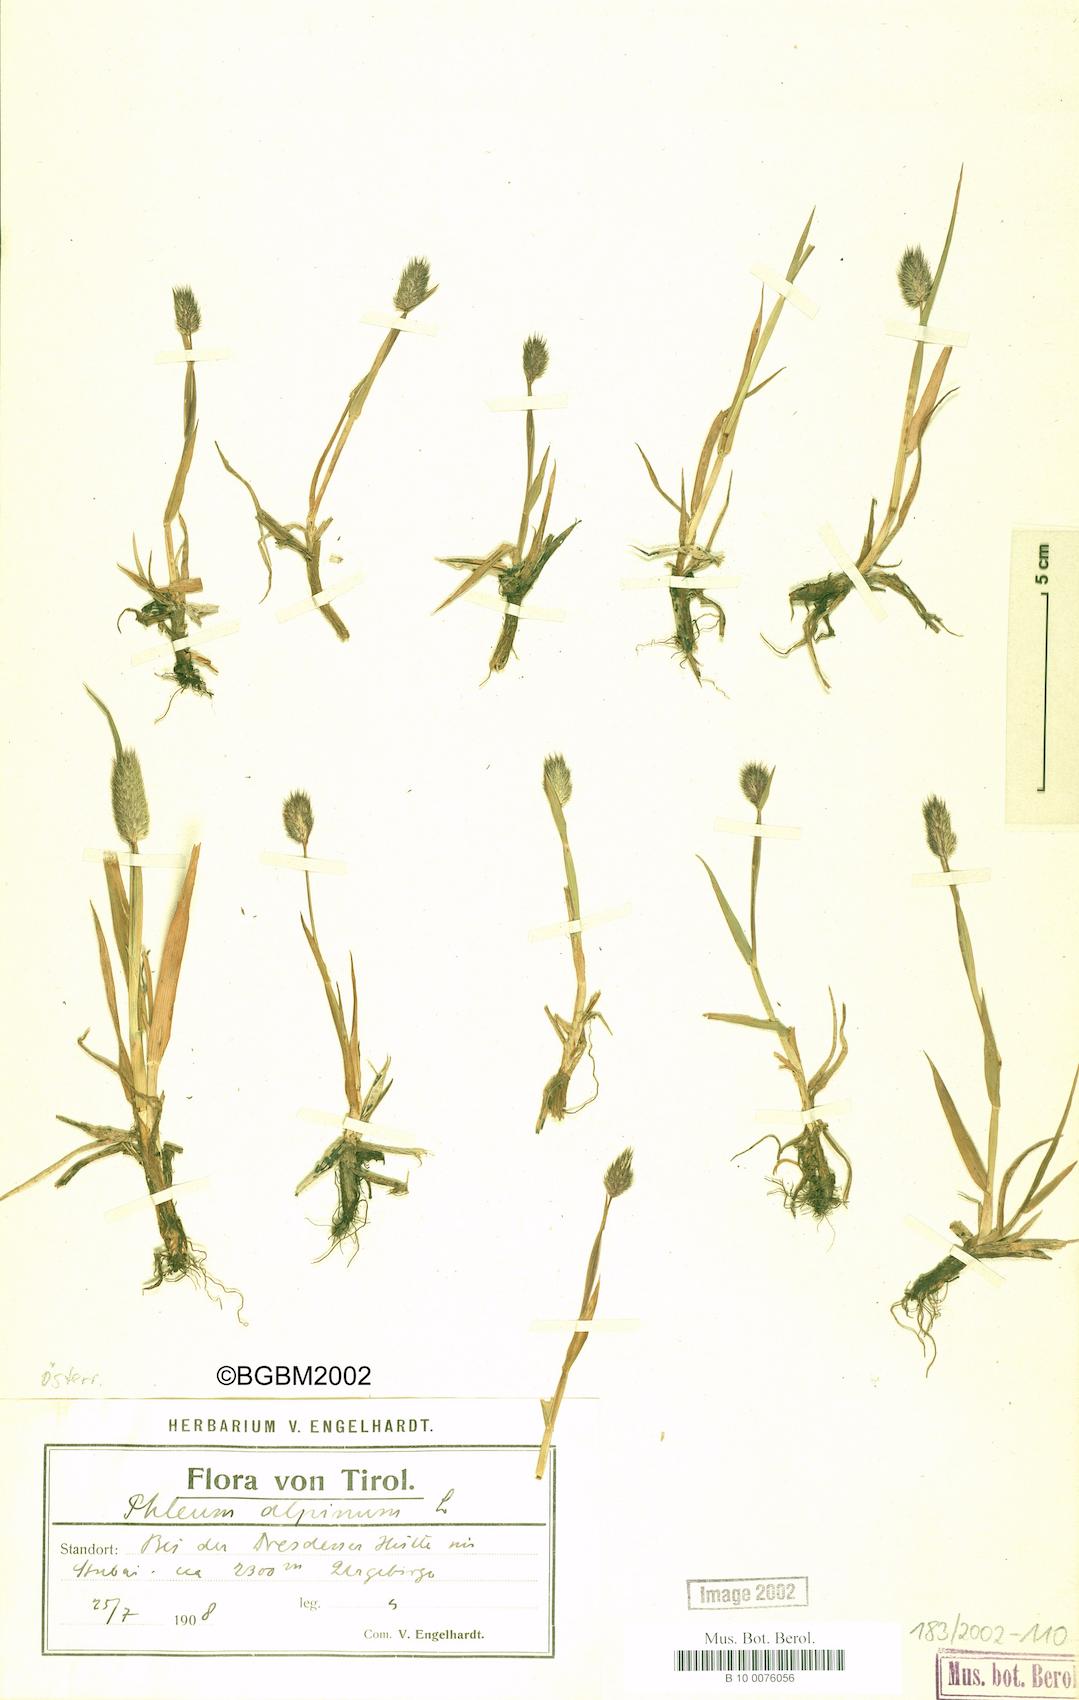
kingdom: Plantae
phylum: Tracheophyta
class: Liliopsida
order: Poales
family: Poaceae
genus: Phleum
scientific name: Phleum alpinum
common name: Alpine cat's-tail
